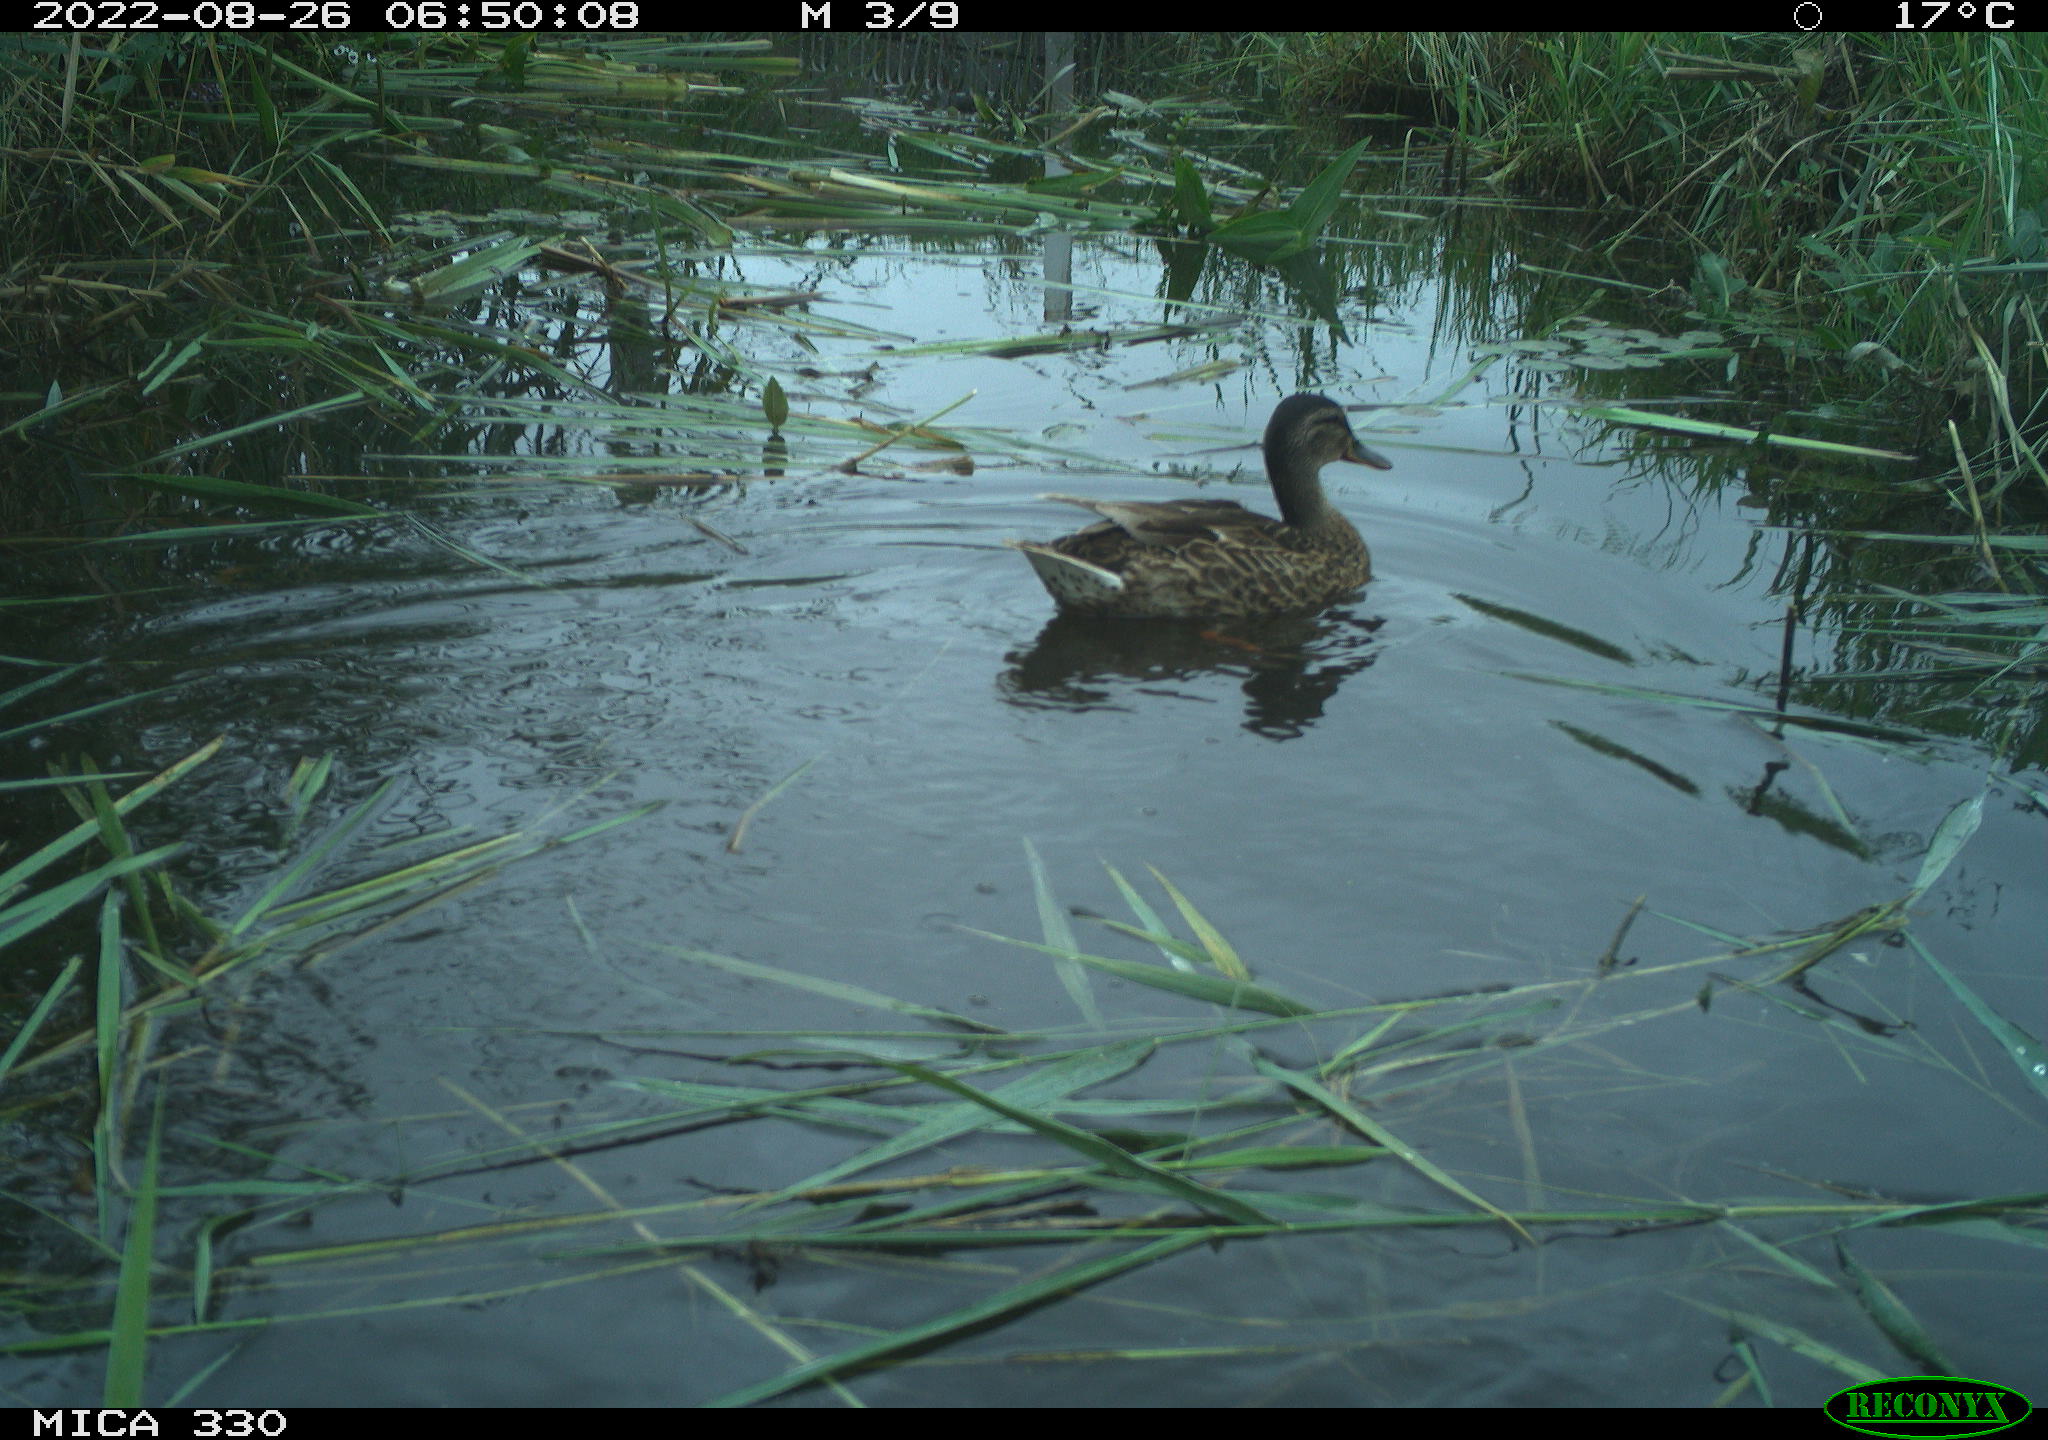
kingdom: Animalia
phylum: Chordata
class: Aves
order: Anseriformes
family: Anatidae
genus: Mareca
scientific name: Mareca strepera
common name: Gadwall
